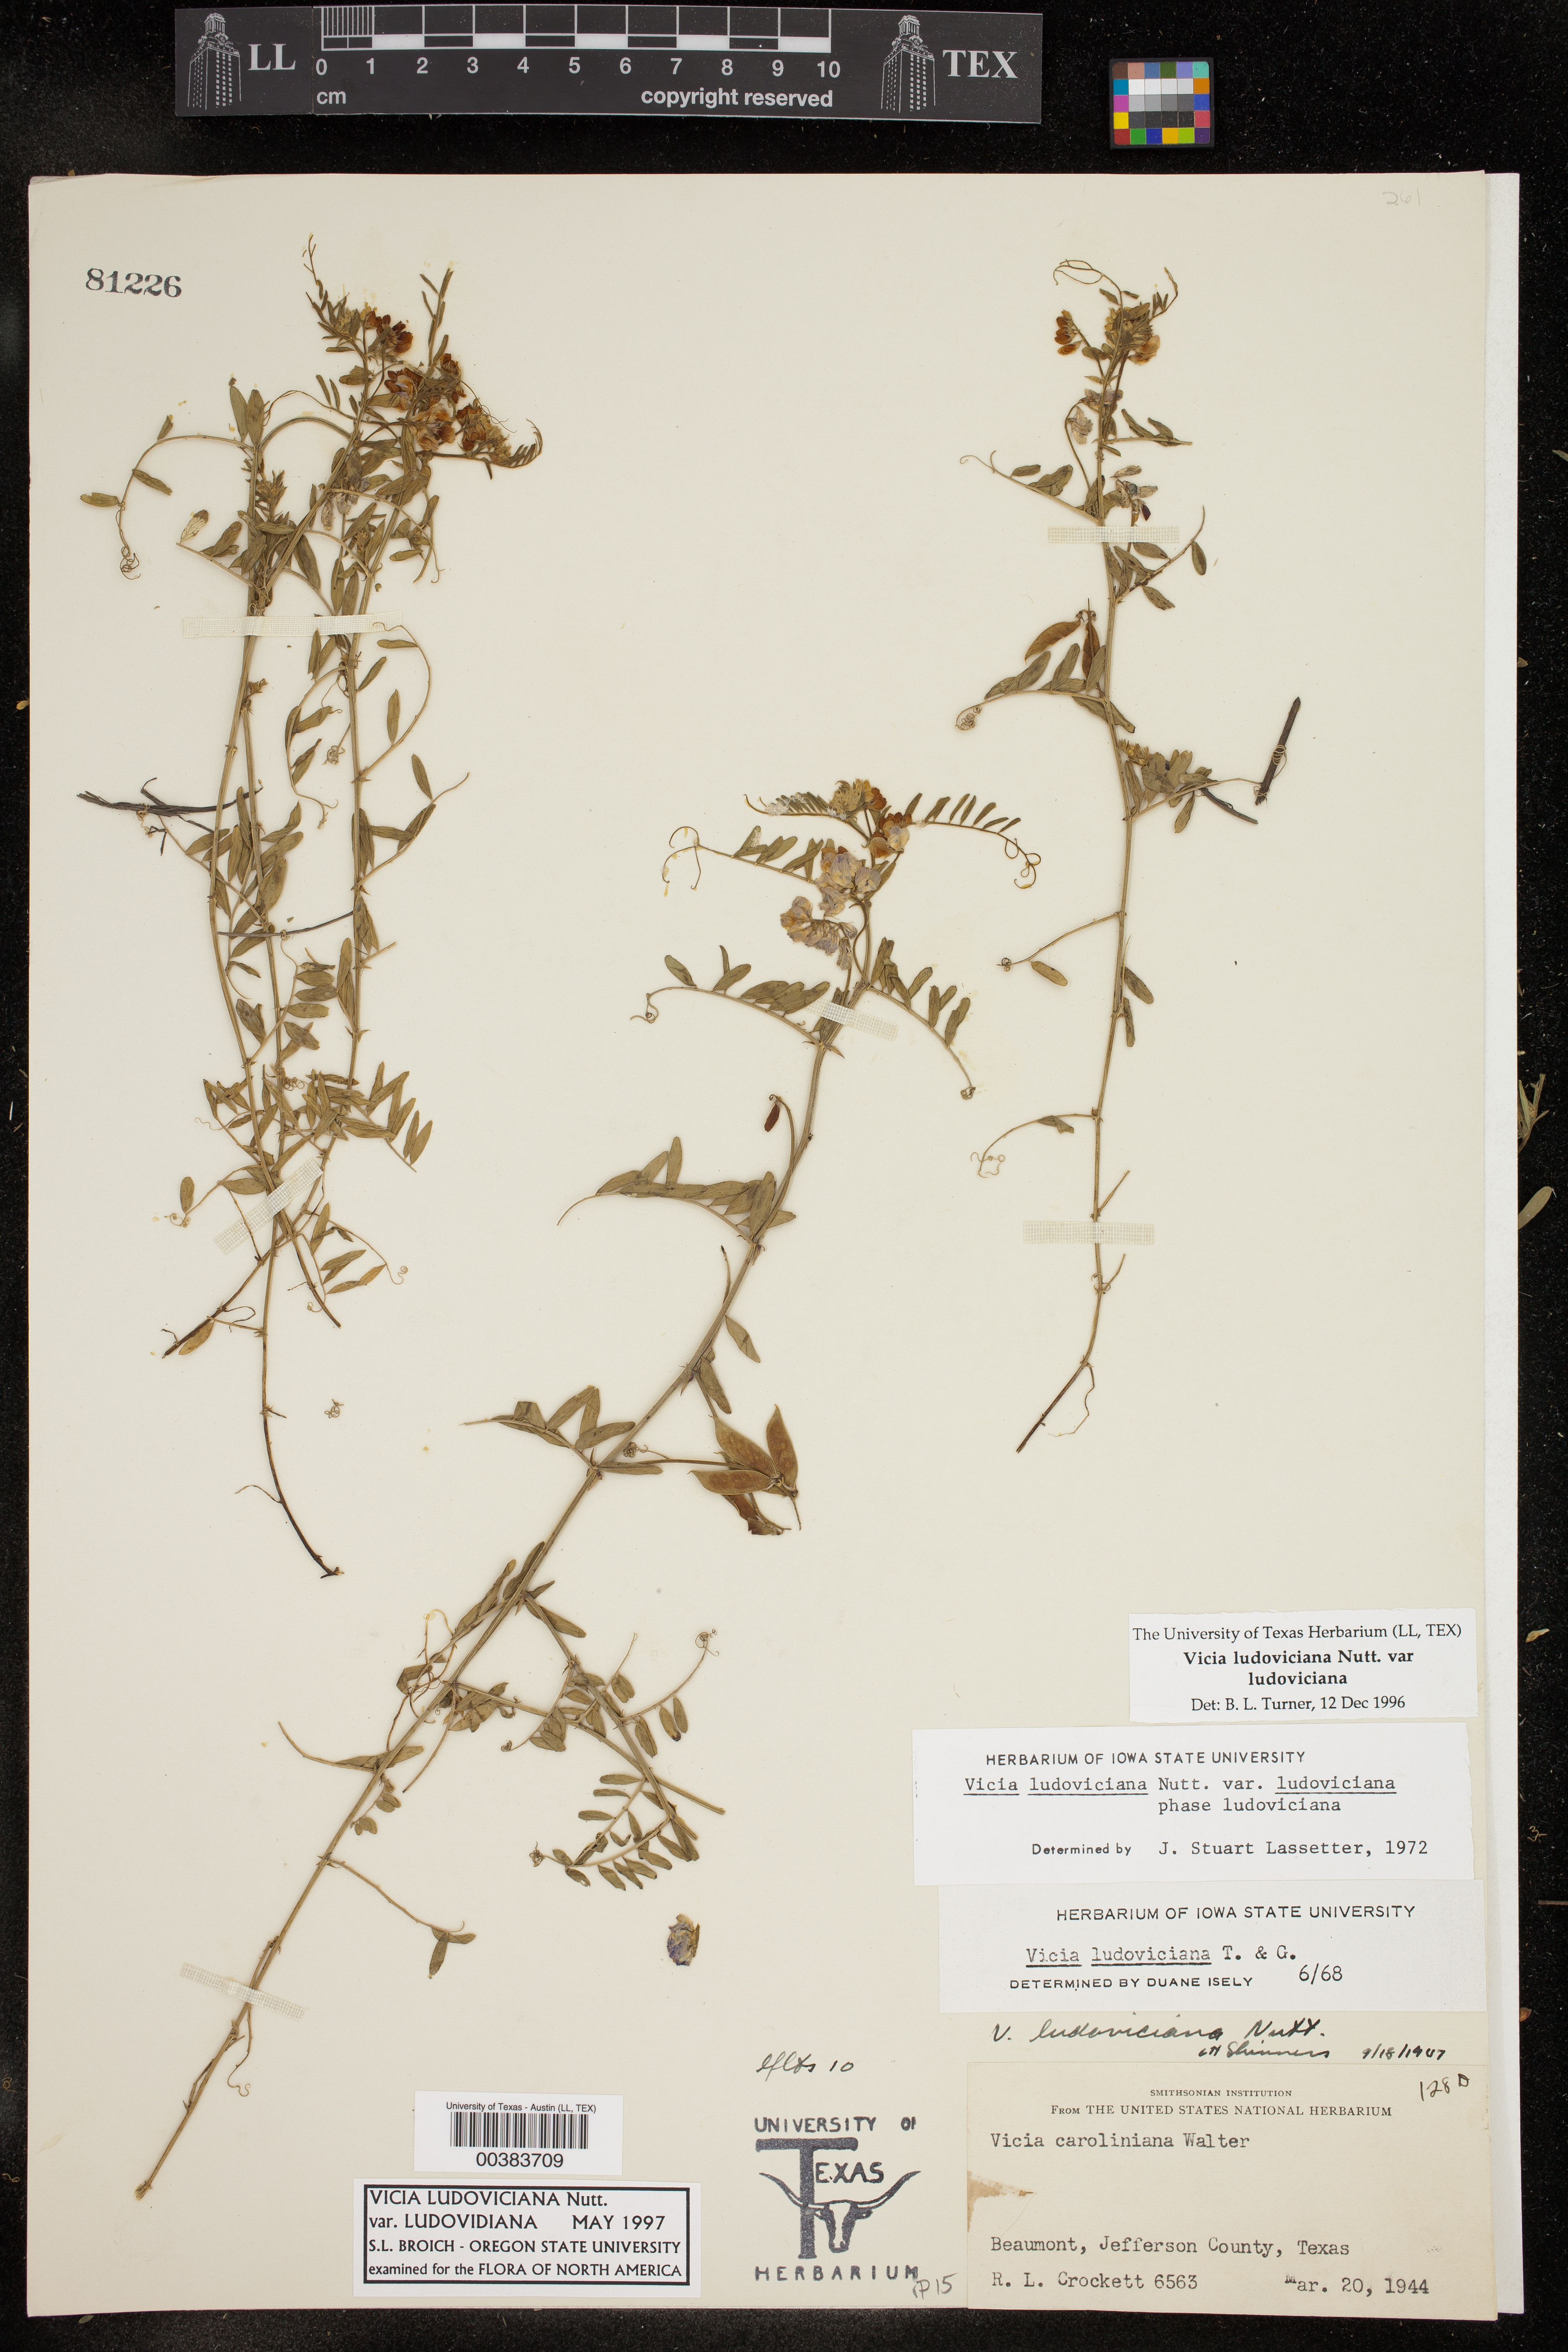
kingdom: Plantae
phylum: Tracheophyta
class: Magnoliopsida
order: Fabales
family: Fabaceae
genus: Vicia
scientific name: Vicia ludoviciana
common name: Louisiana vetch
